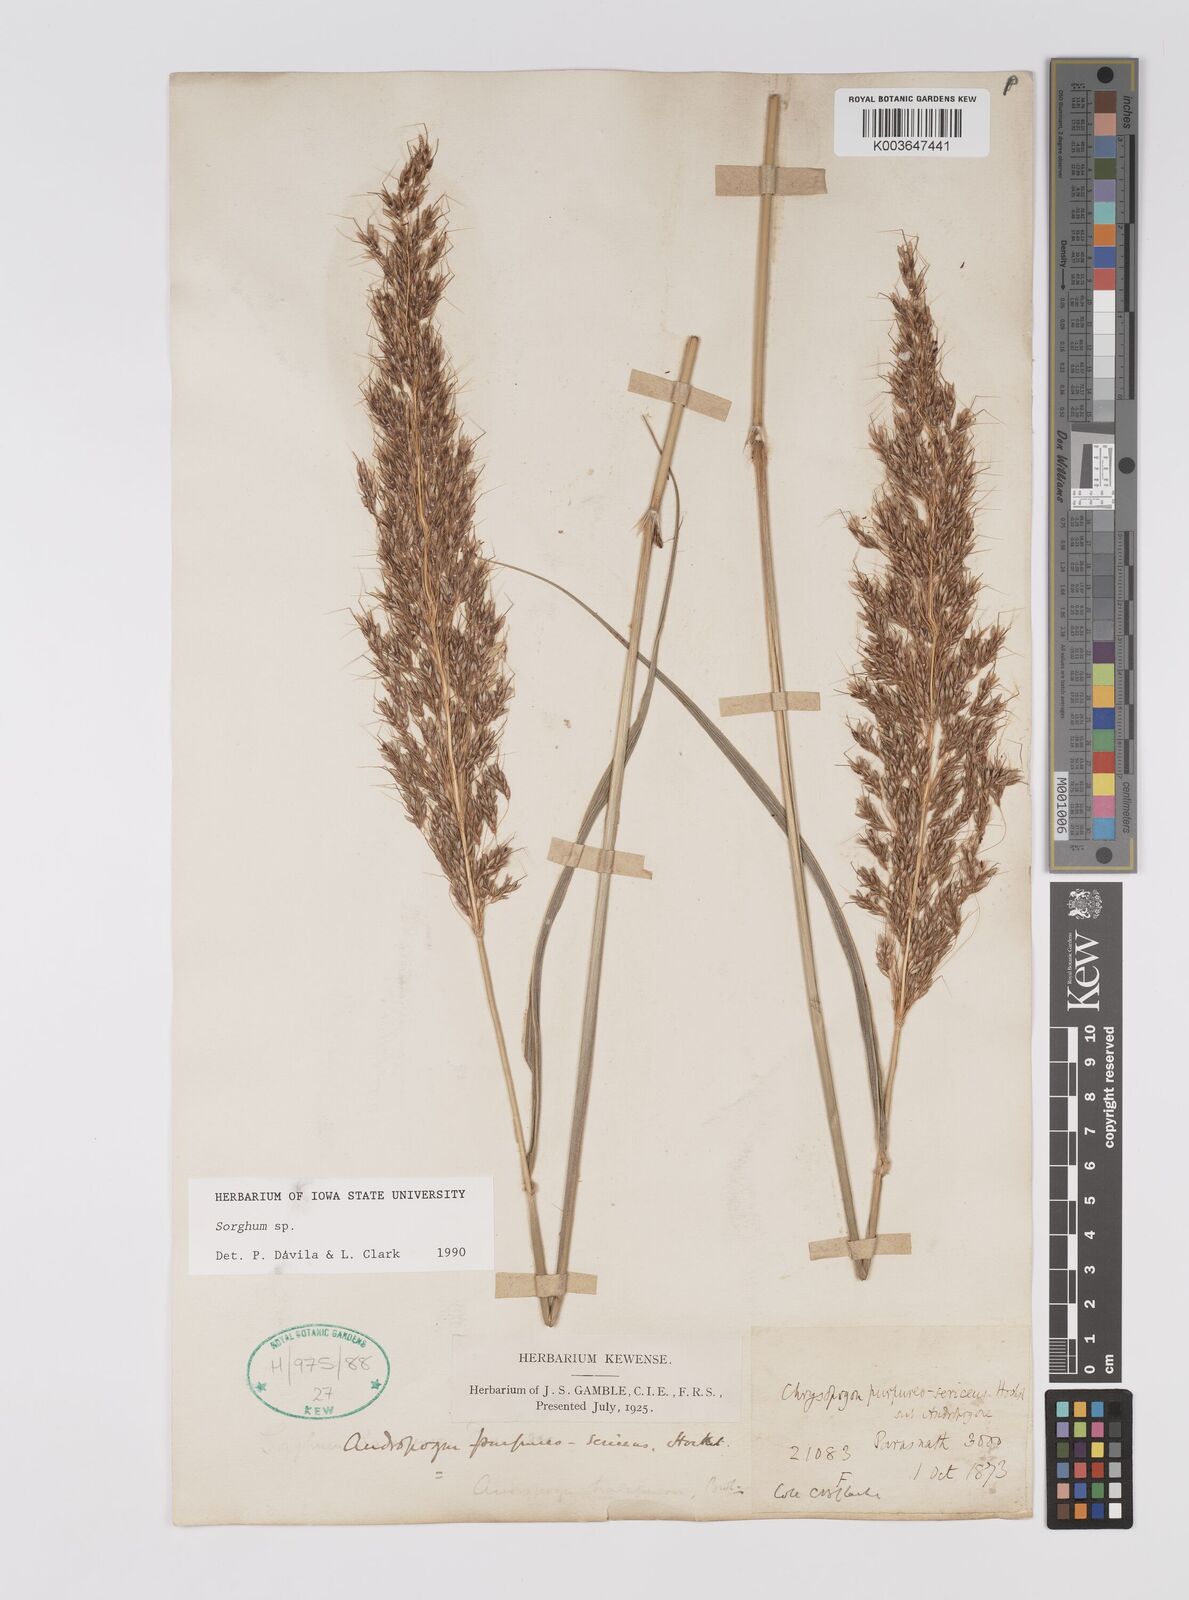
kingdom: Plantae
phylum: Tracheophyta
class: Liliopsida
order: Poales
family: Poaceae
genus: Sorghum
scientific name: Sorghum
